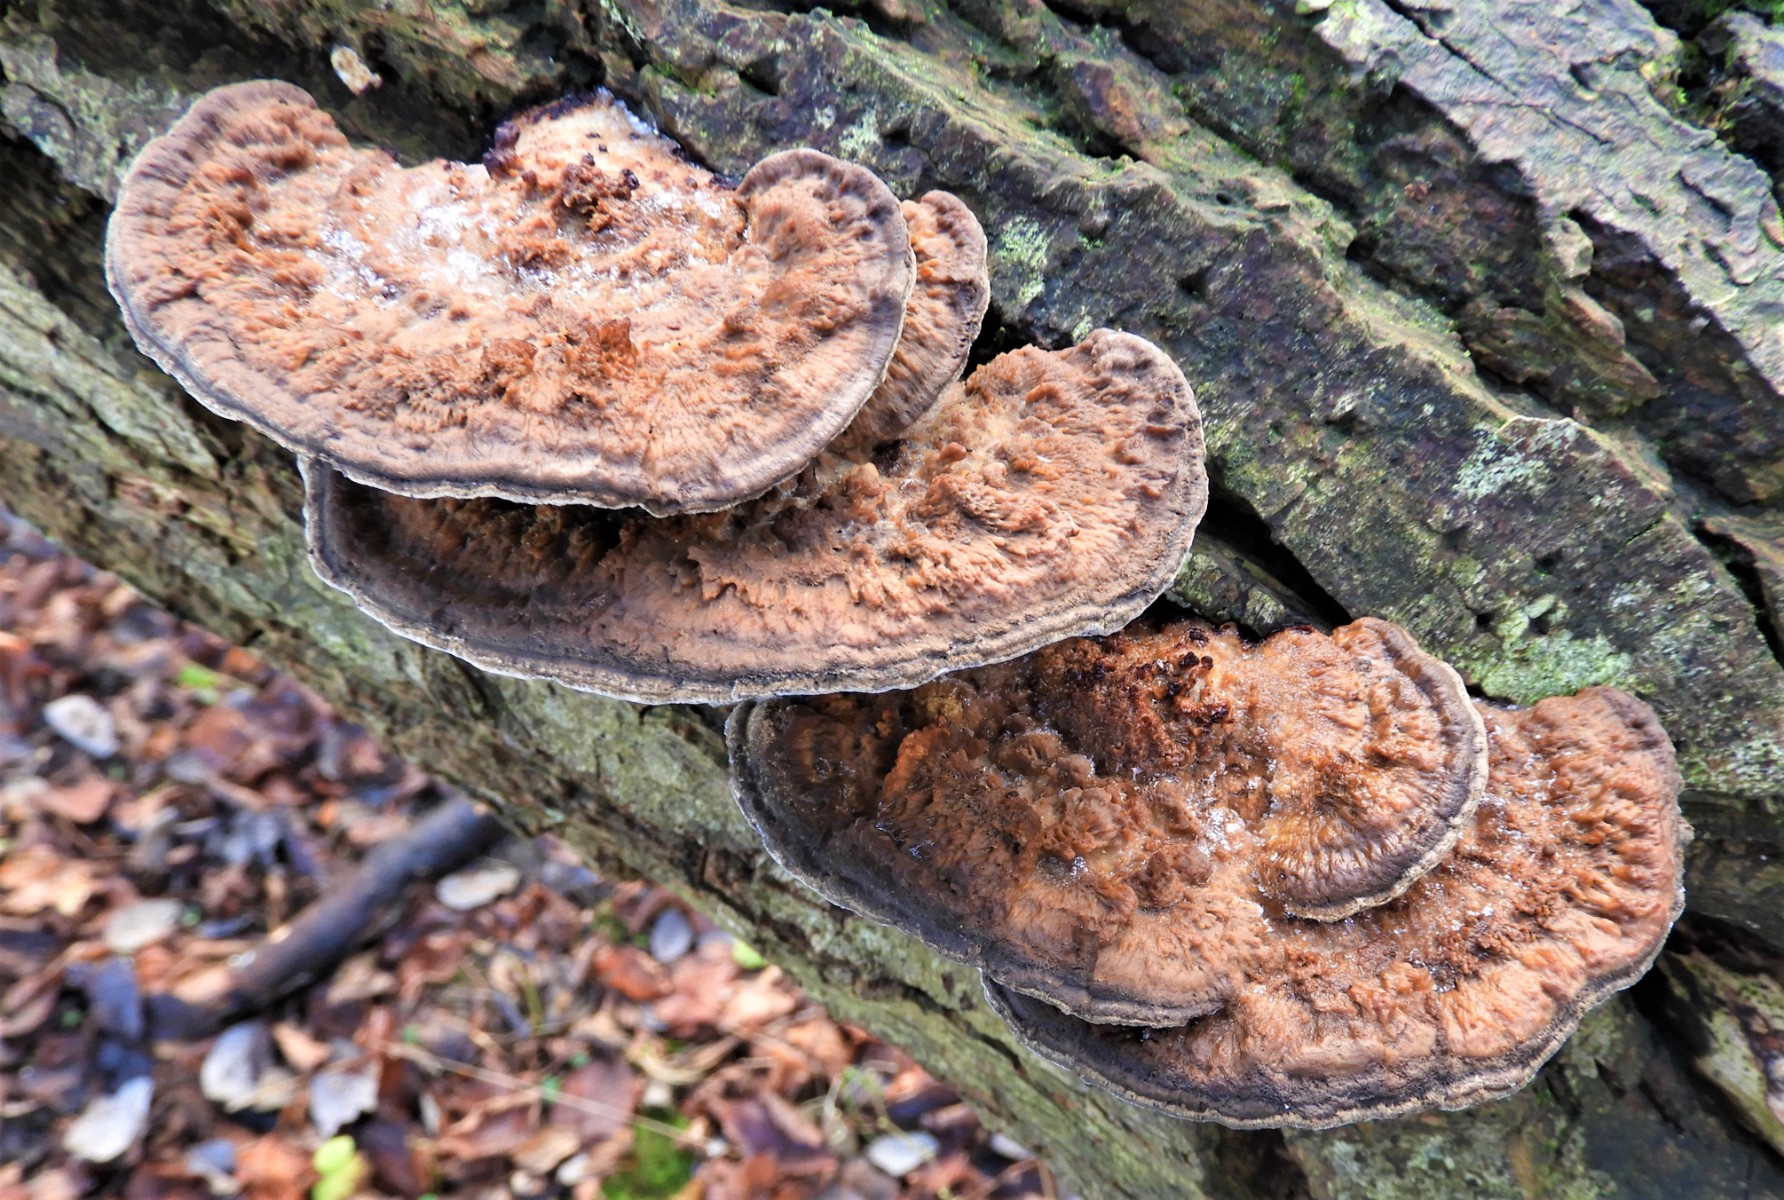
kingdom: Fungi
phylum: Basidiomycota
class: Agaricomycetes
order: Polyporales
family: Polyporaceae
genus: Daedaleopsis
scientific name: Daedaleopsis confragosa
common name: rødmende læderporesvamp
